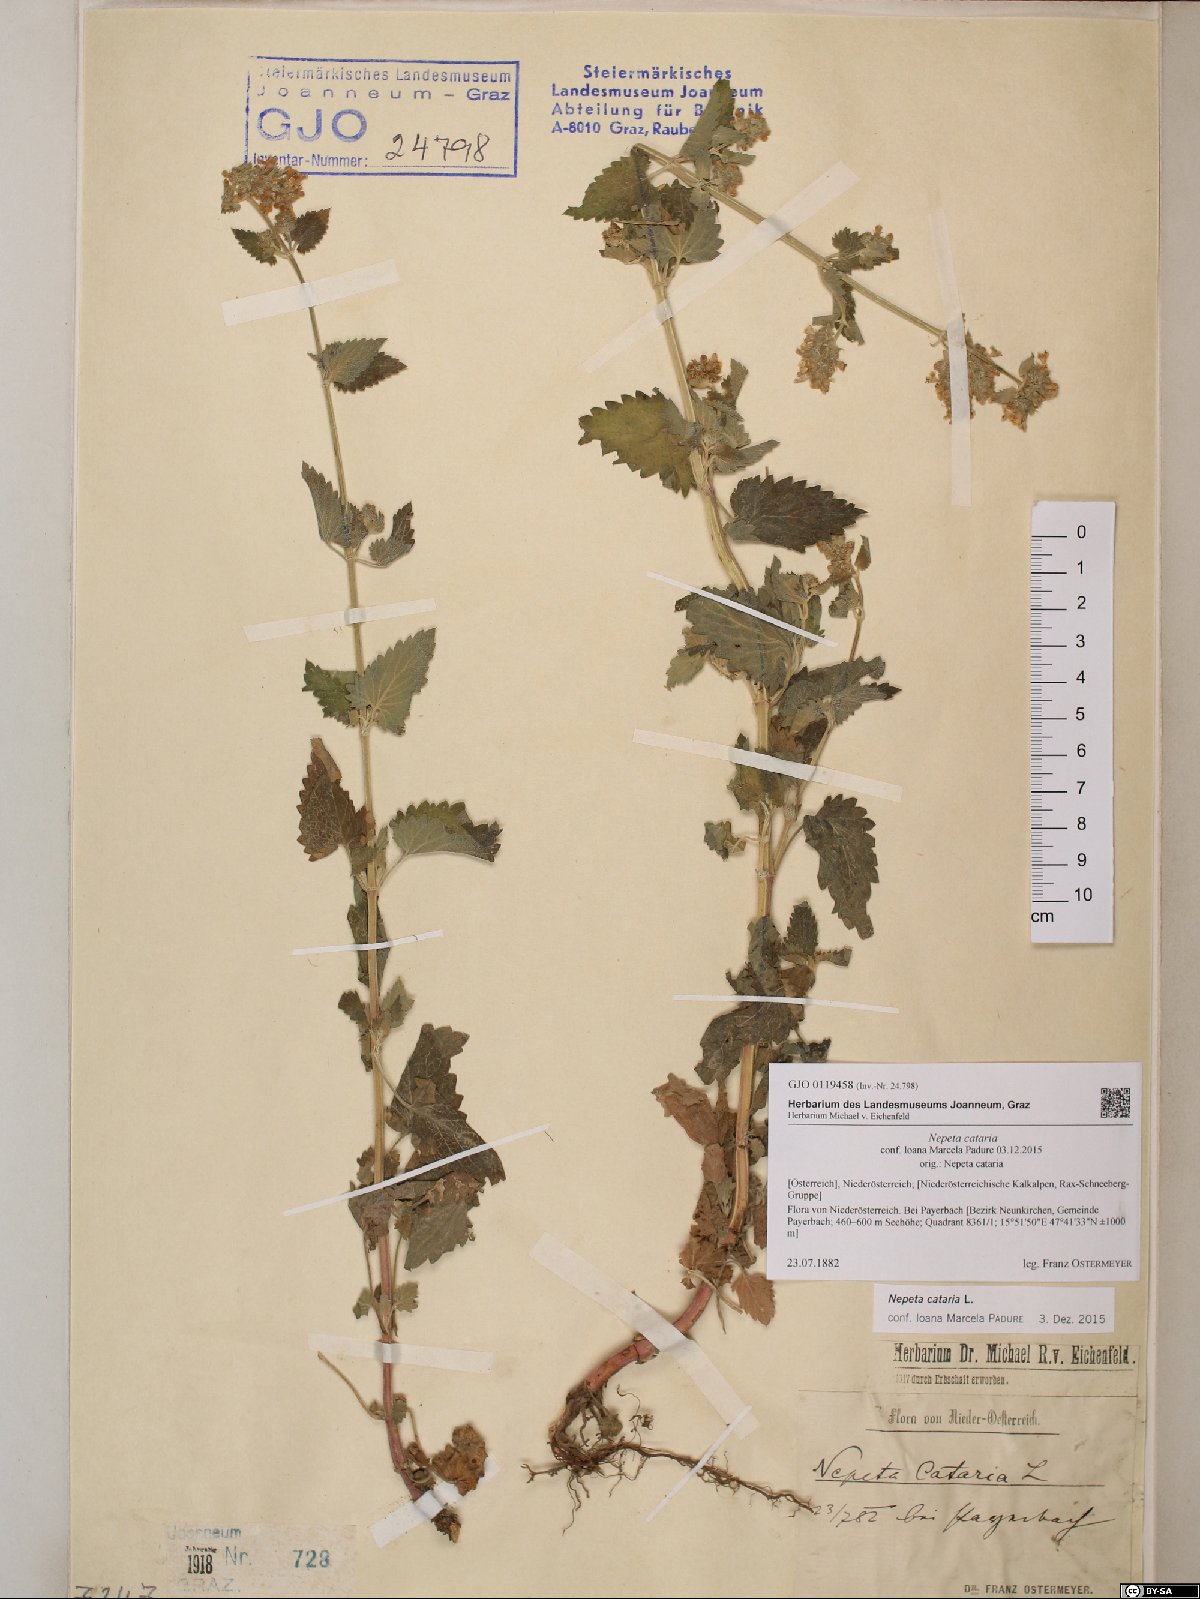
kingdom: Plantae
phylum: Tracheophyta
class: Magnoliopsida
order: Lamiales
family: Lamiaceae
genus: Nepeta
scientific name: Nepeta cataria
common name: Catnip
